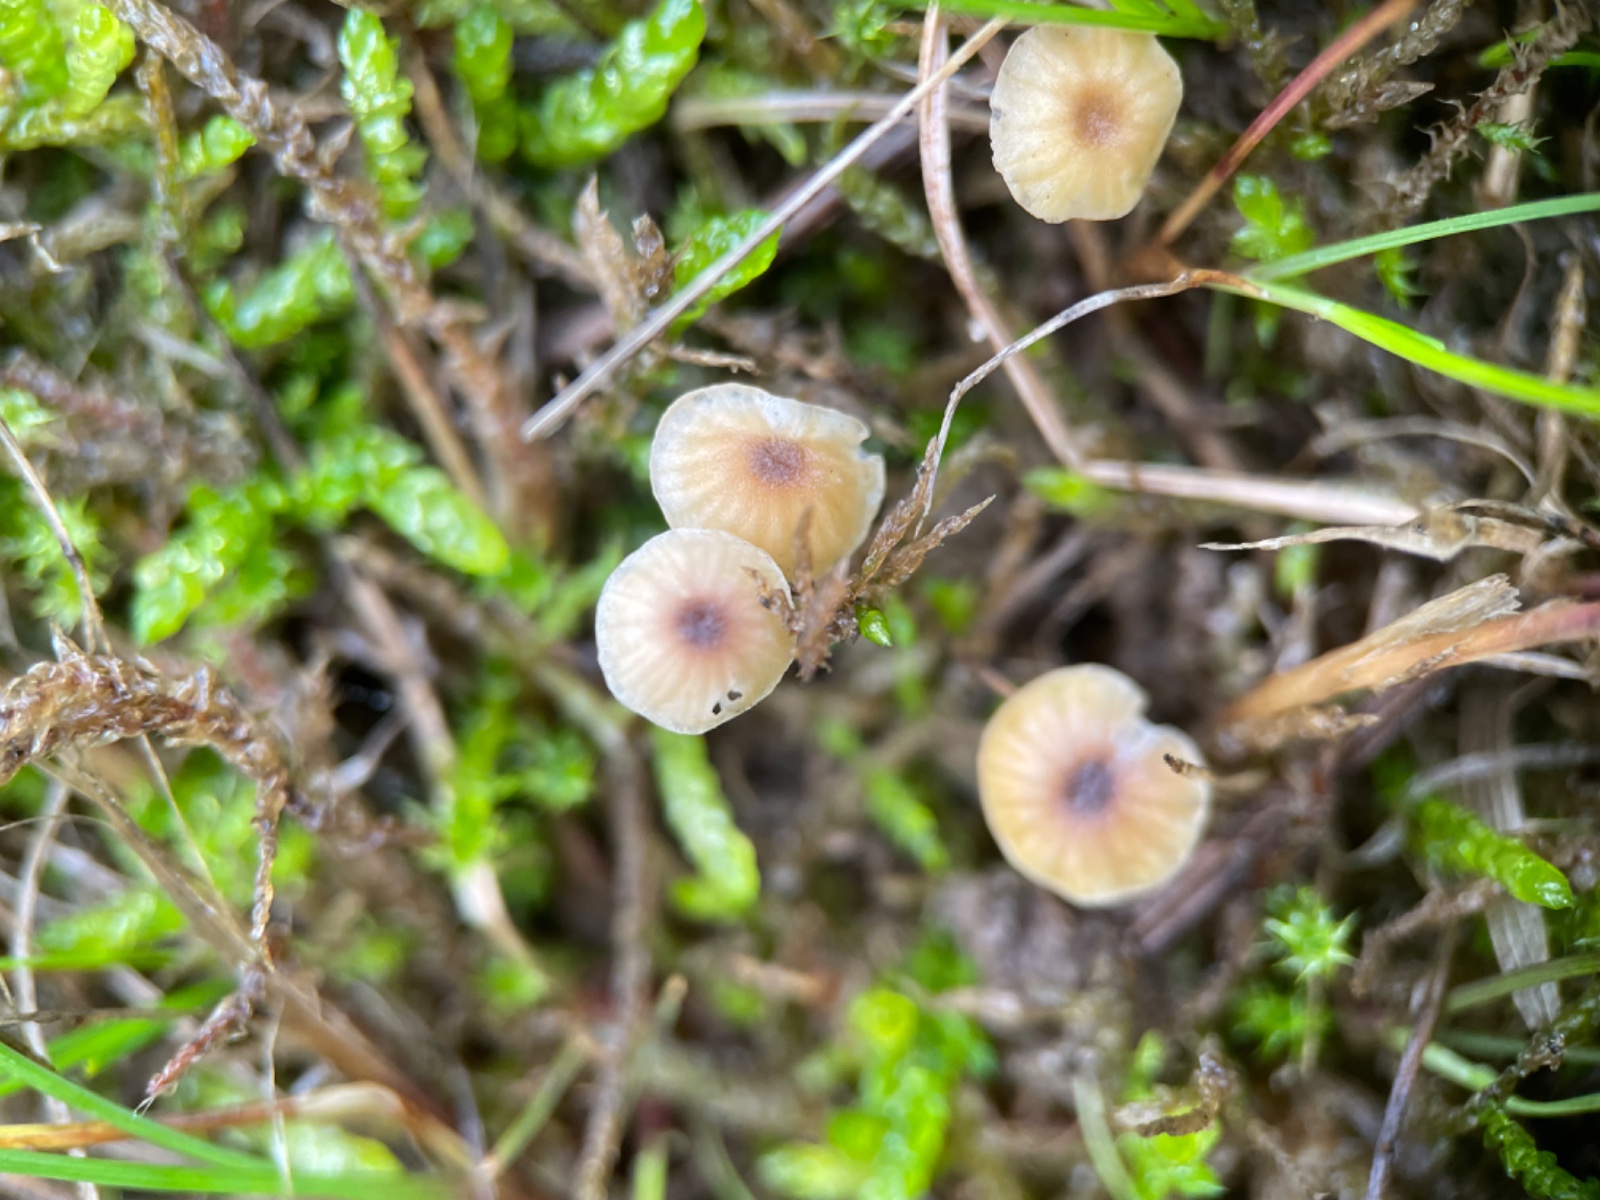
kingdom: Fungi
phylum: Basidiomycota
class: Agaricomycetes
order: Agaricales
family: Omphalotaceae
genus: Gymnopus
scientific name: Gymnopus androsaceus
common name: trådstokket fladhat
